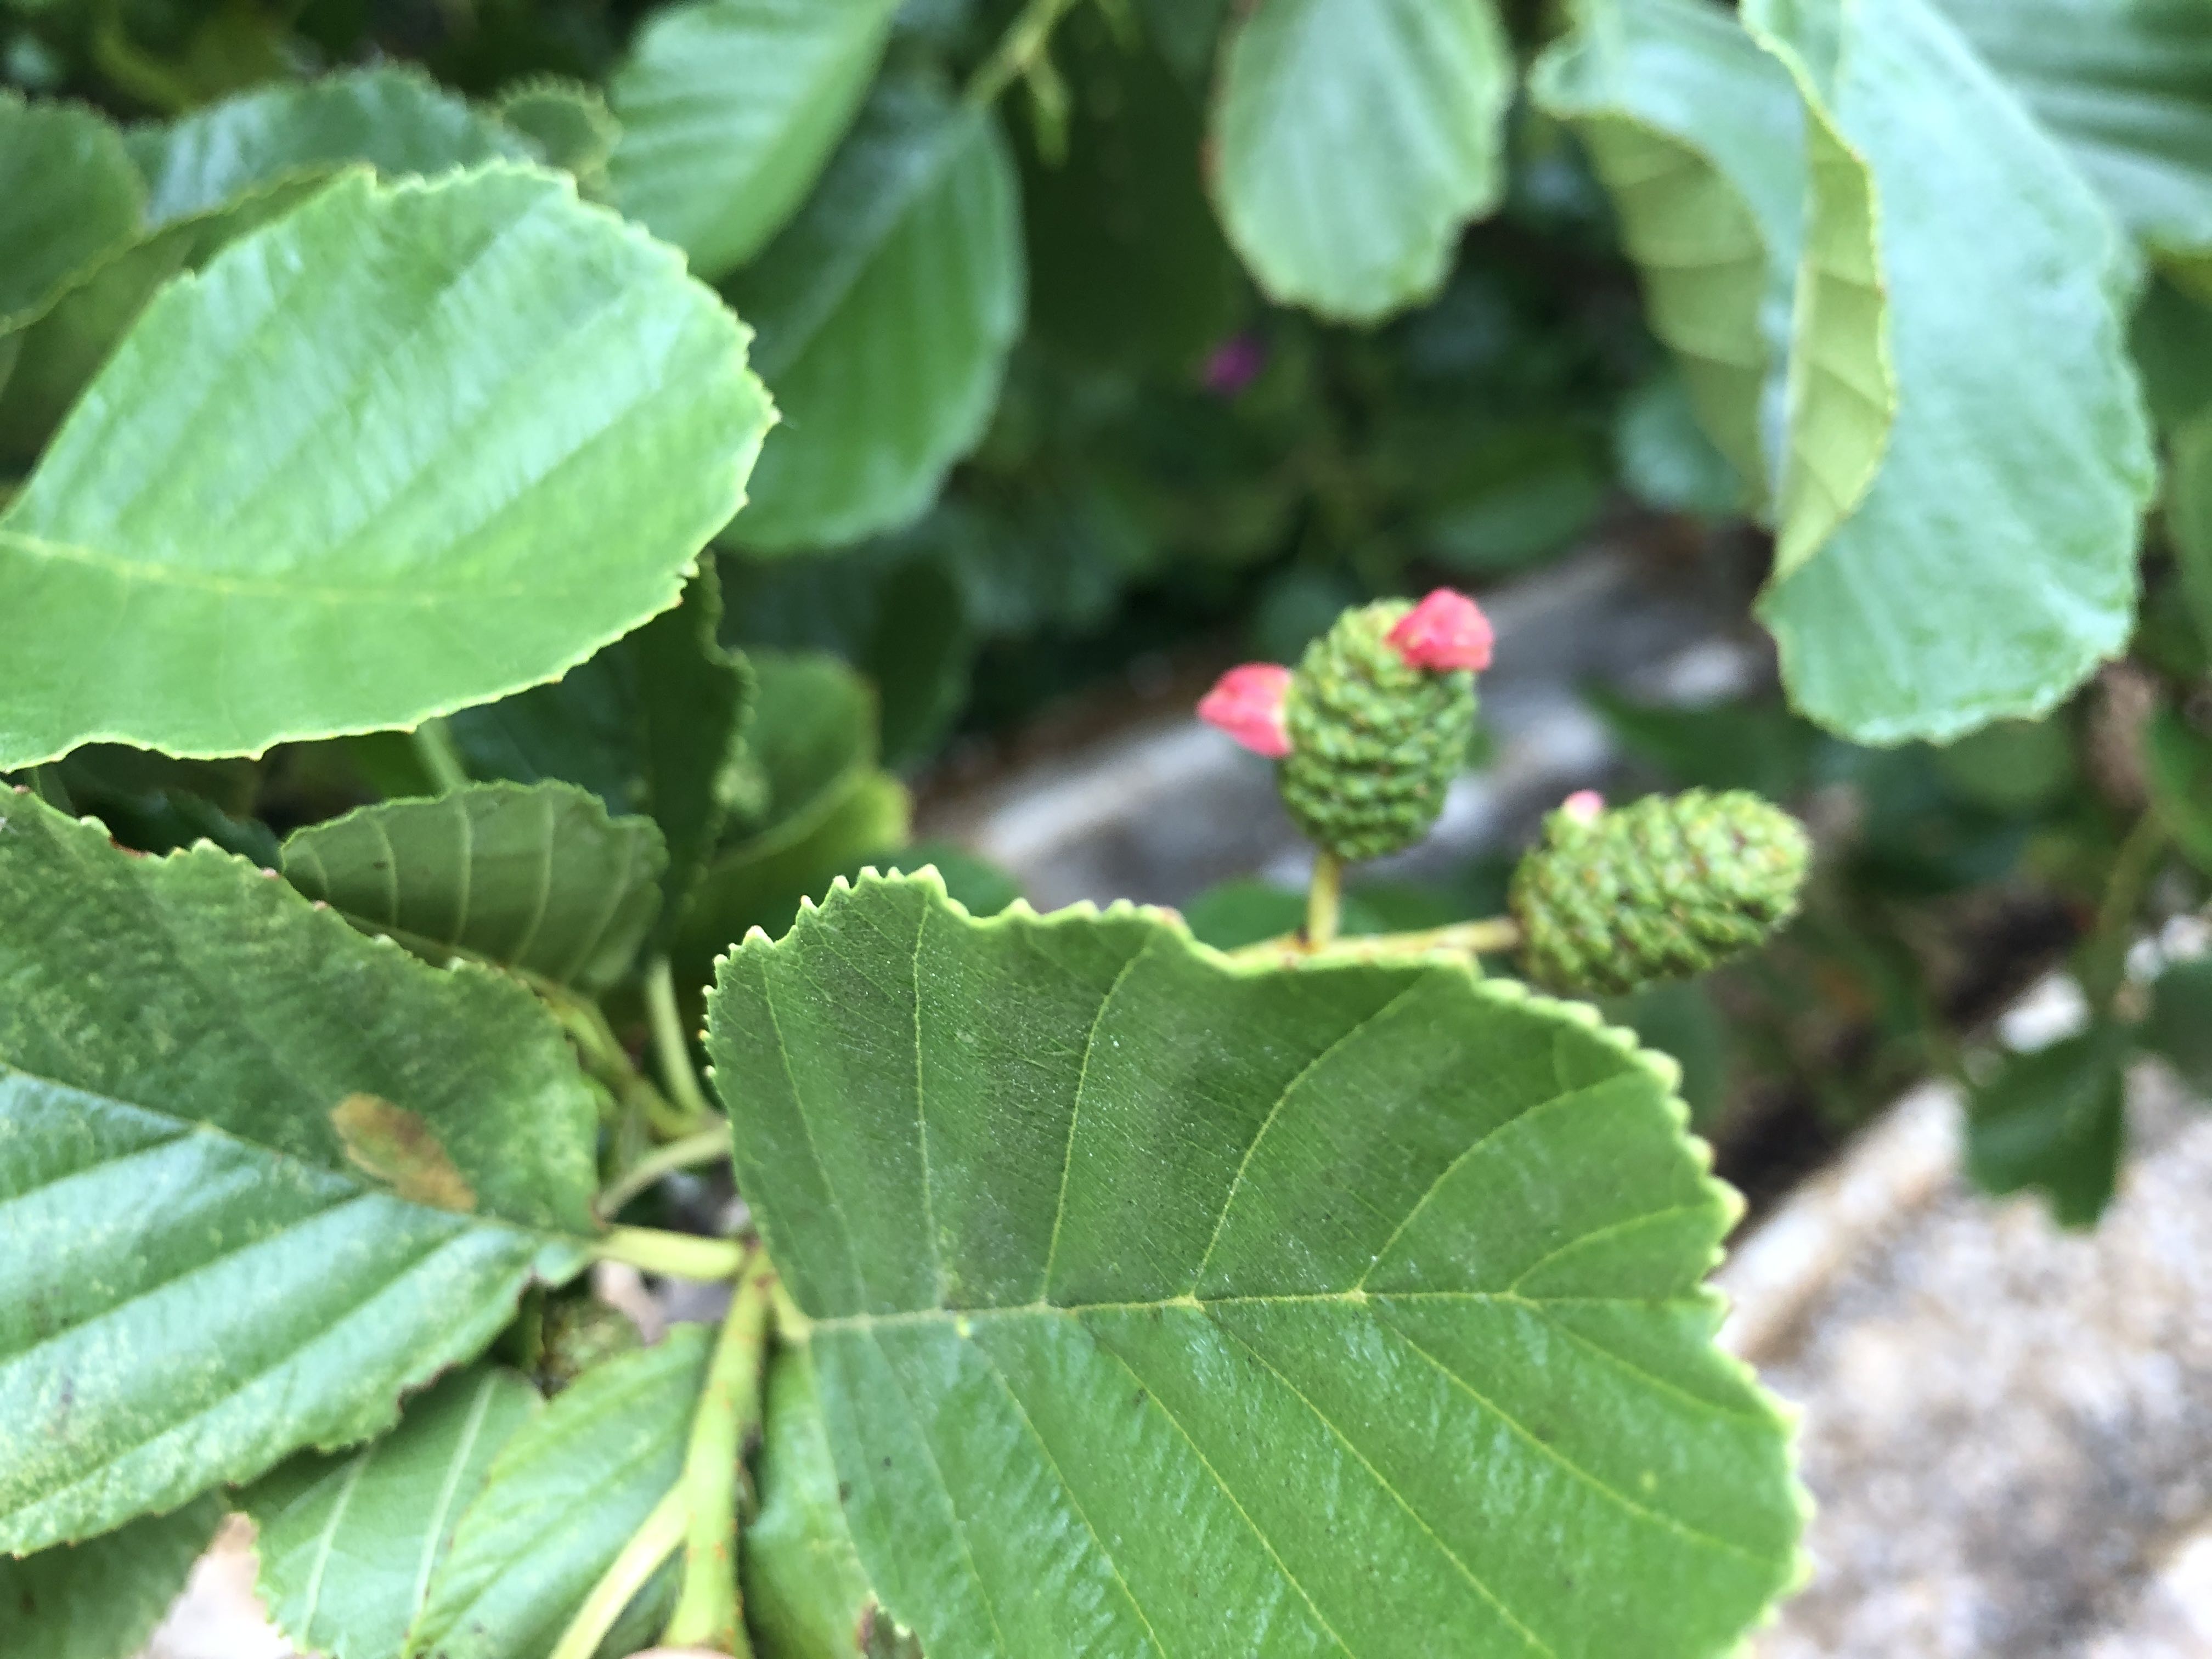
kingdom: Fungi
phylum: Ascomycota
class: Taphrinomycetes
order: Taphrinales
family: Taphrinaceae
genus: Taphrina
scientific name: Taphrina alni
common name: Alder tongue
